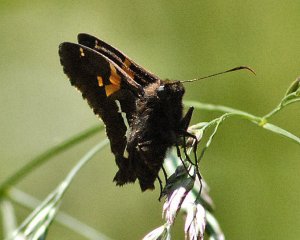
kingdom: Animalia
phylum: Arthropoda
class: Insecta
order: Lepidoptera
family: Hesperiidae
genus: Epargyreus
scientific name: Epargyreus clarus
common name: Silver-spotted Skipper
